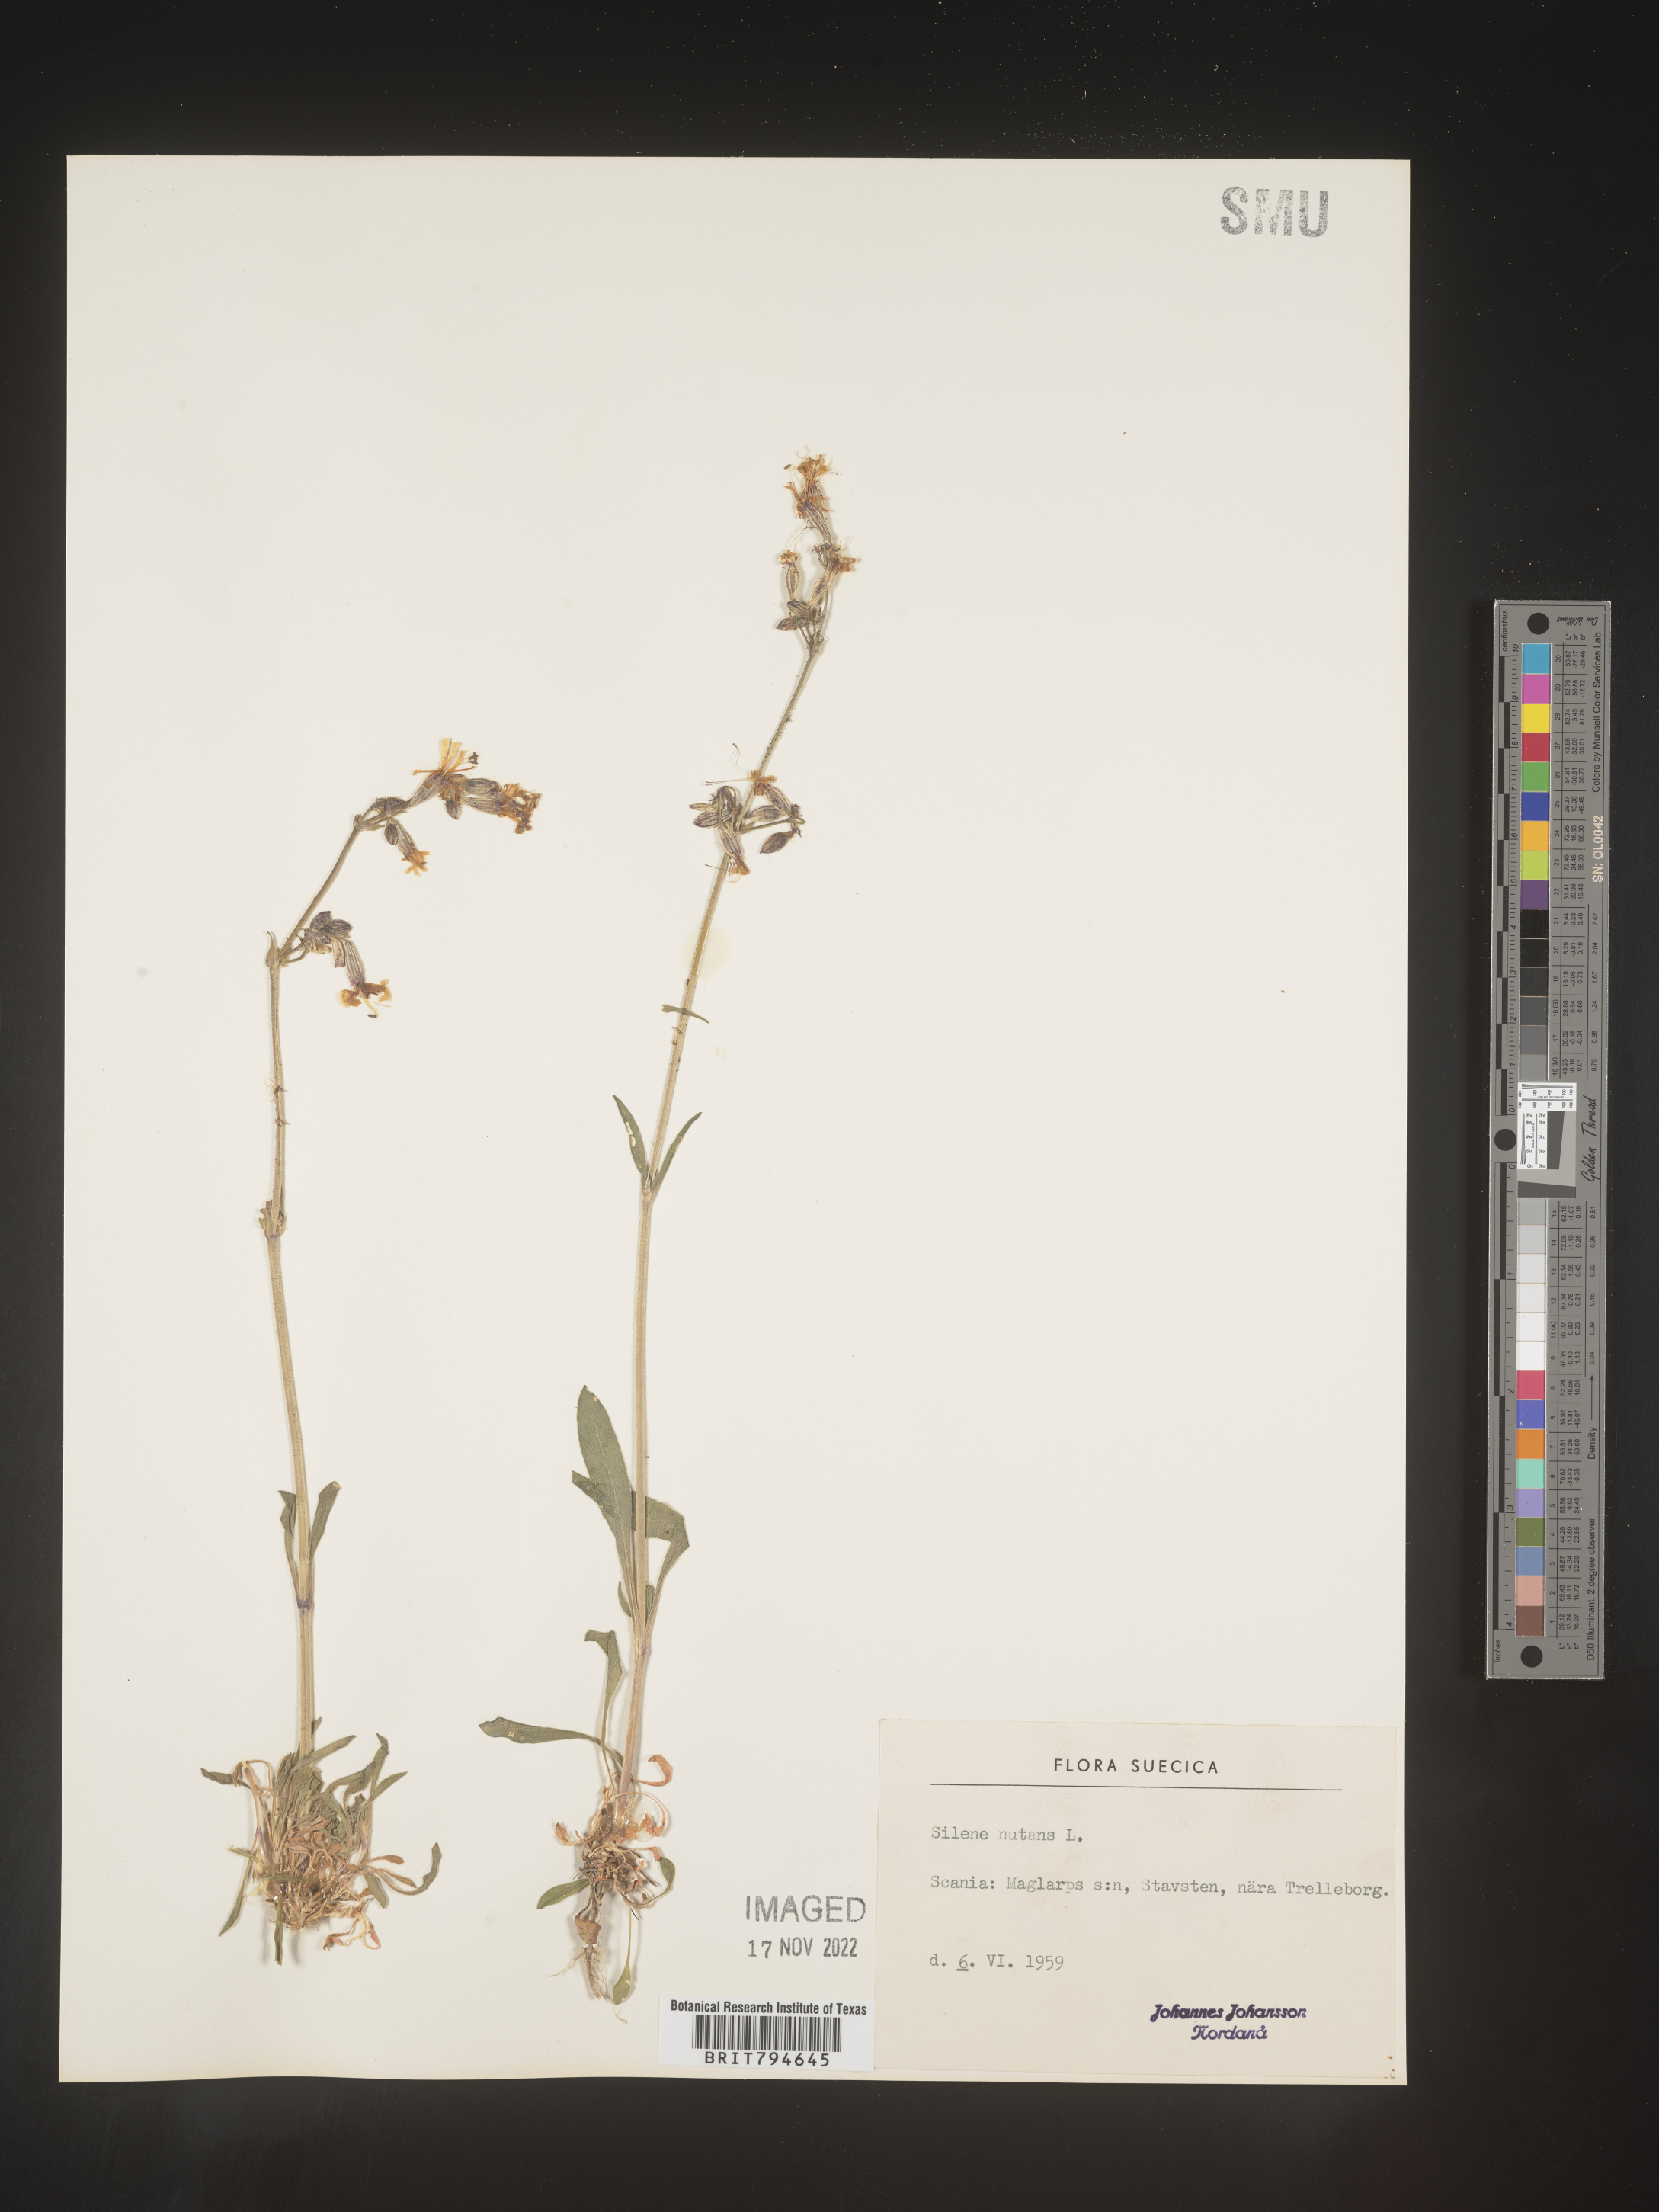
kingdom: Plantae
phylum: Tracheophyta
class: Magnoliopsida
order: Caryophyllales
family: Caryophyllaceae
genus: Silene
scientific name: Silene nutans
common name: Nottingham catchfly
